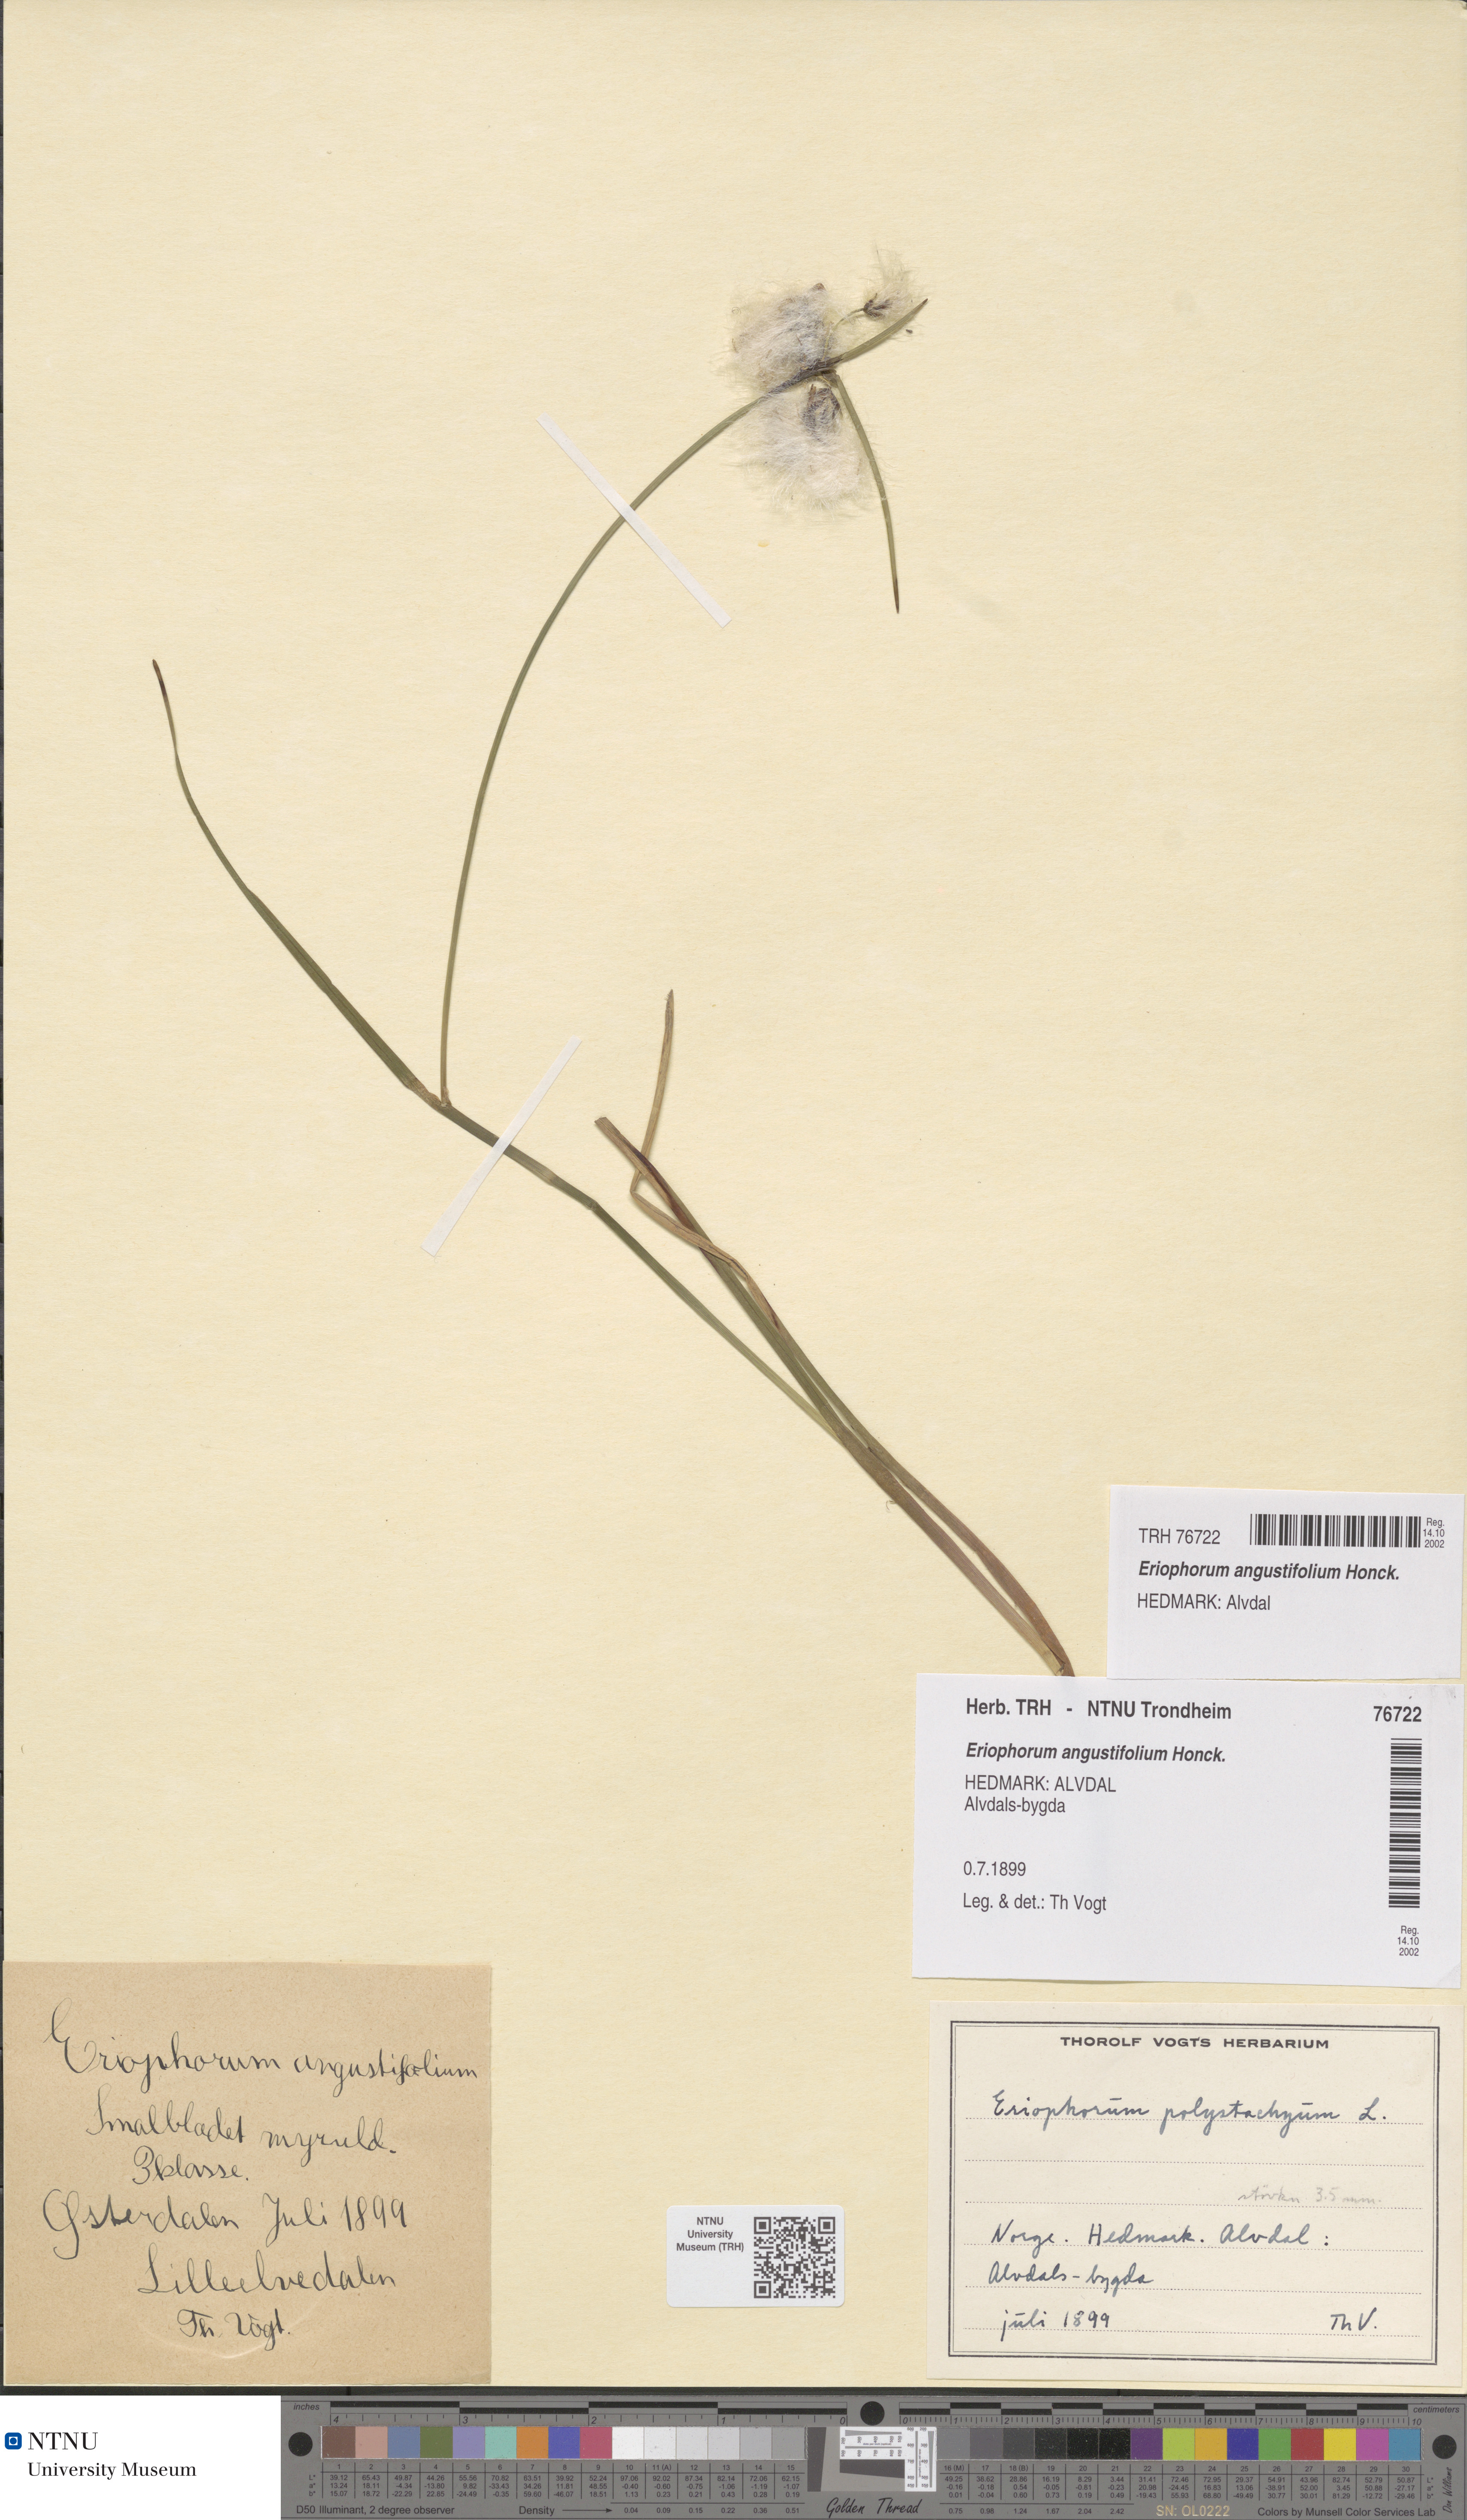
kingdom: Plantae
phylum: Tracheophyta
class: Liliopsida
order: Poales
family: Cyperaceae
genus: Eriophorum
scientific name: Eriophorum angustifolium
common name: Common cottongrass
